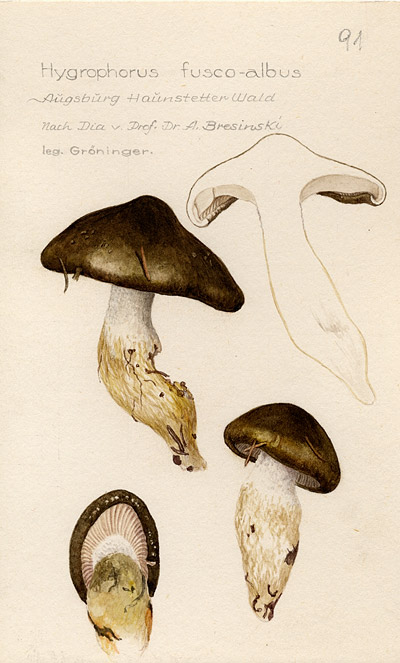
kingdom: Fungi
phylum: Basidiomycota
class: Agaricomycetes
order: Agaricales
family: Hygrophoraceae
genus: Hygrophorus
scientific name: Hygrophorus fuscoalbus
